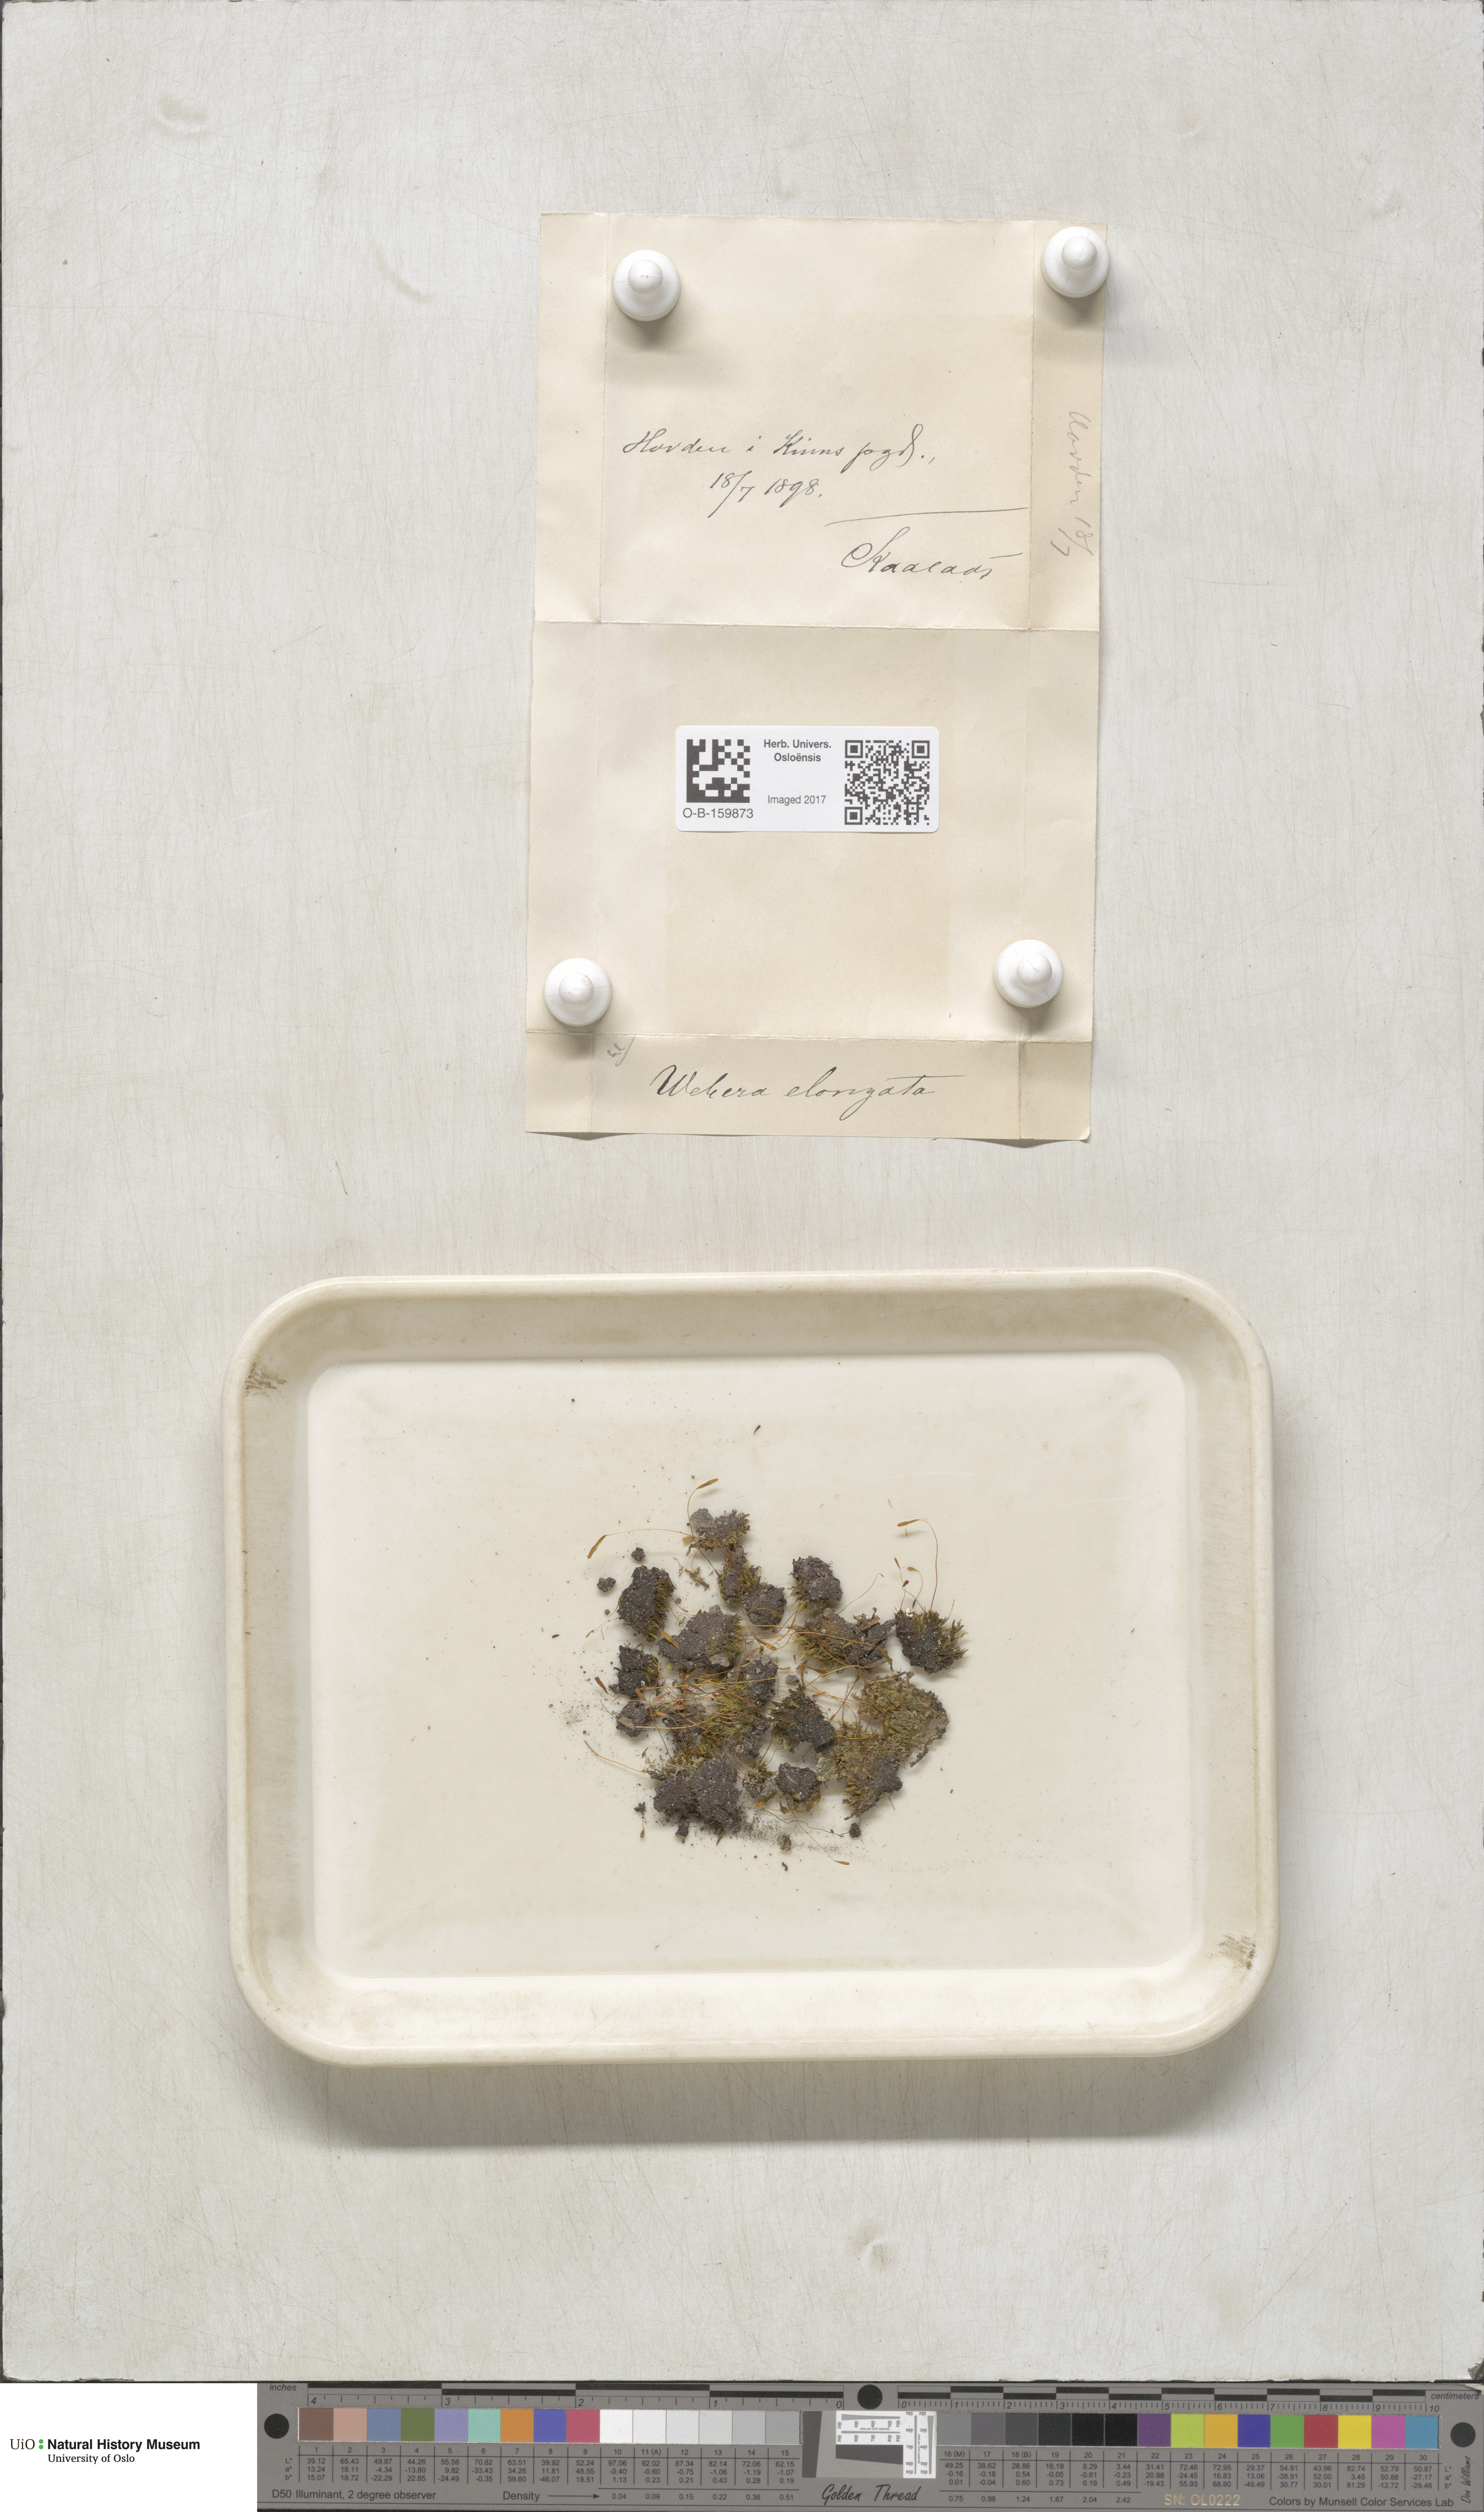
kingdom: Plantae
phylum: Bryophyta
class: Bryopsida
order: Bryales
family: Mniaceae
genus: Pohlia
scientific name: Pohlia elongata
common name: Long-fruited thread-moss
